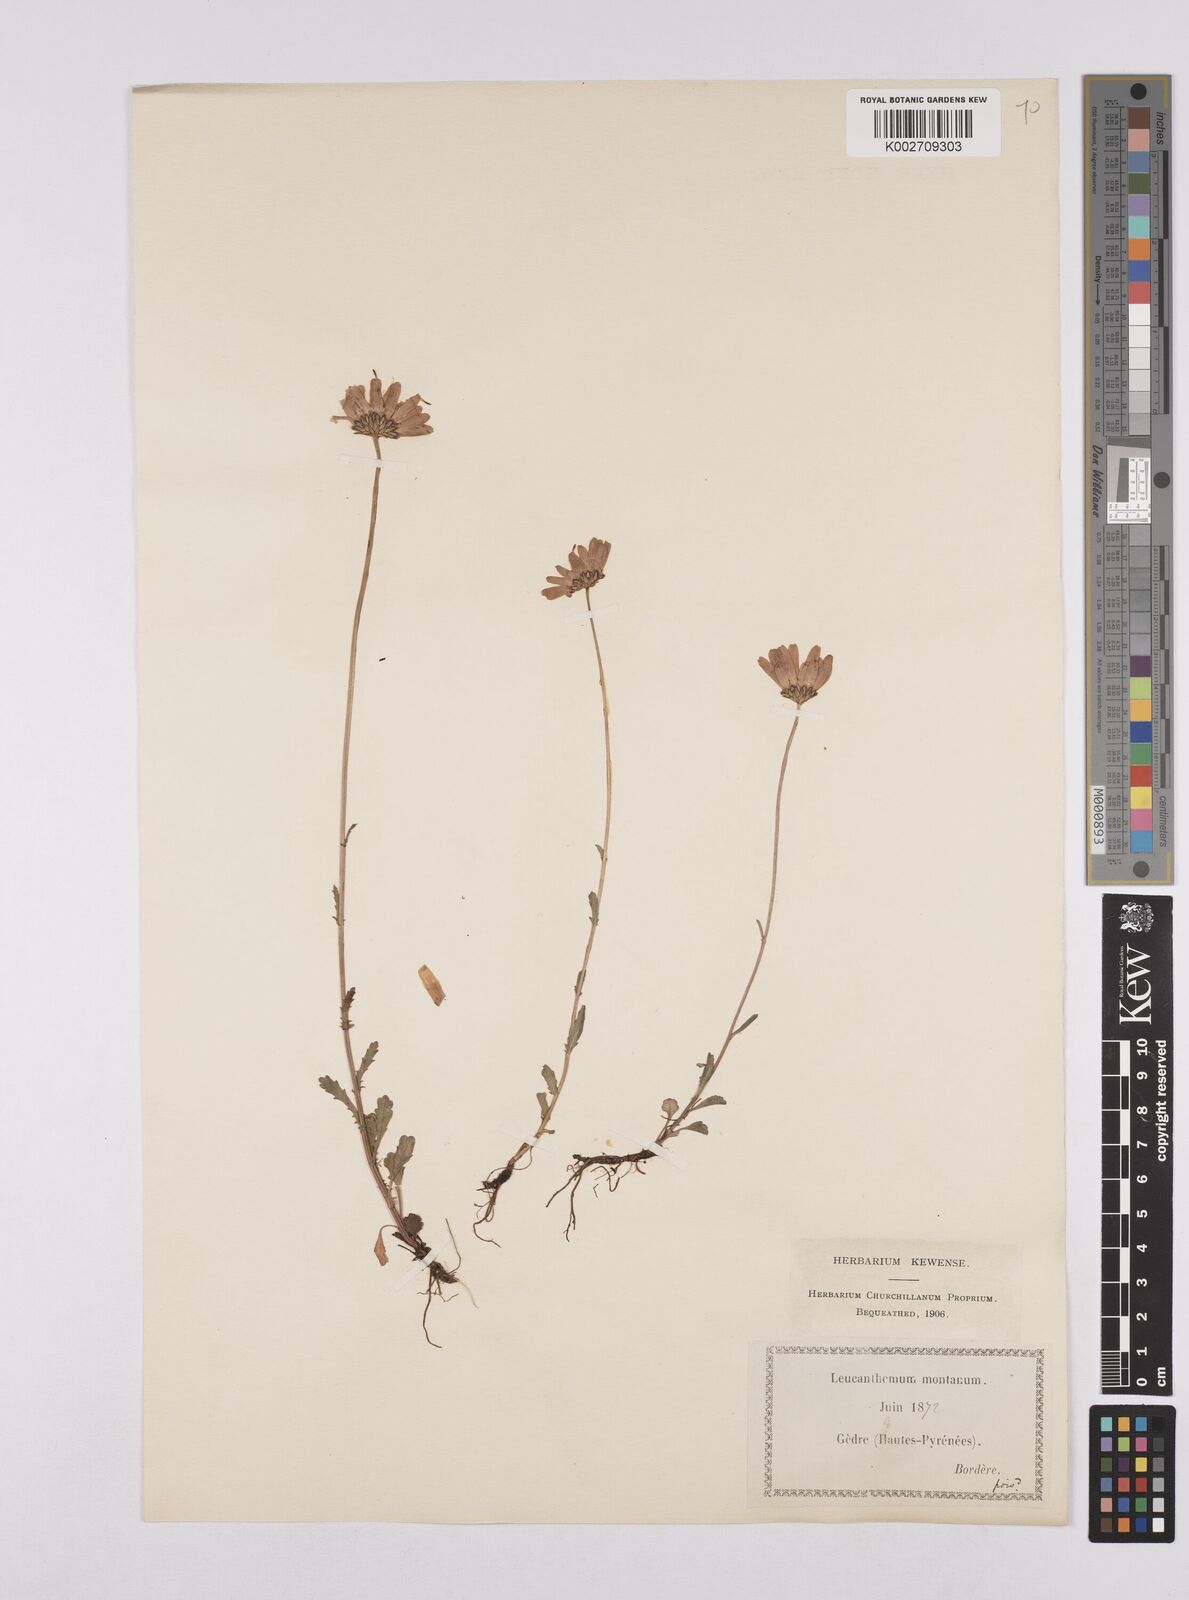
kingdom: Plantae
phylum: Tracheophyta
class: Magnoliopsida
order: Asterales
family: Asteraceae
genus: Matricaria
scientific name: Matricaria chamomilla
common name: Scented mayweed
